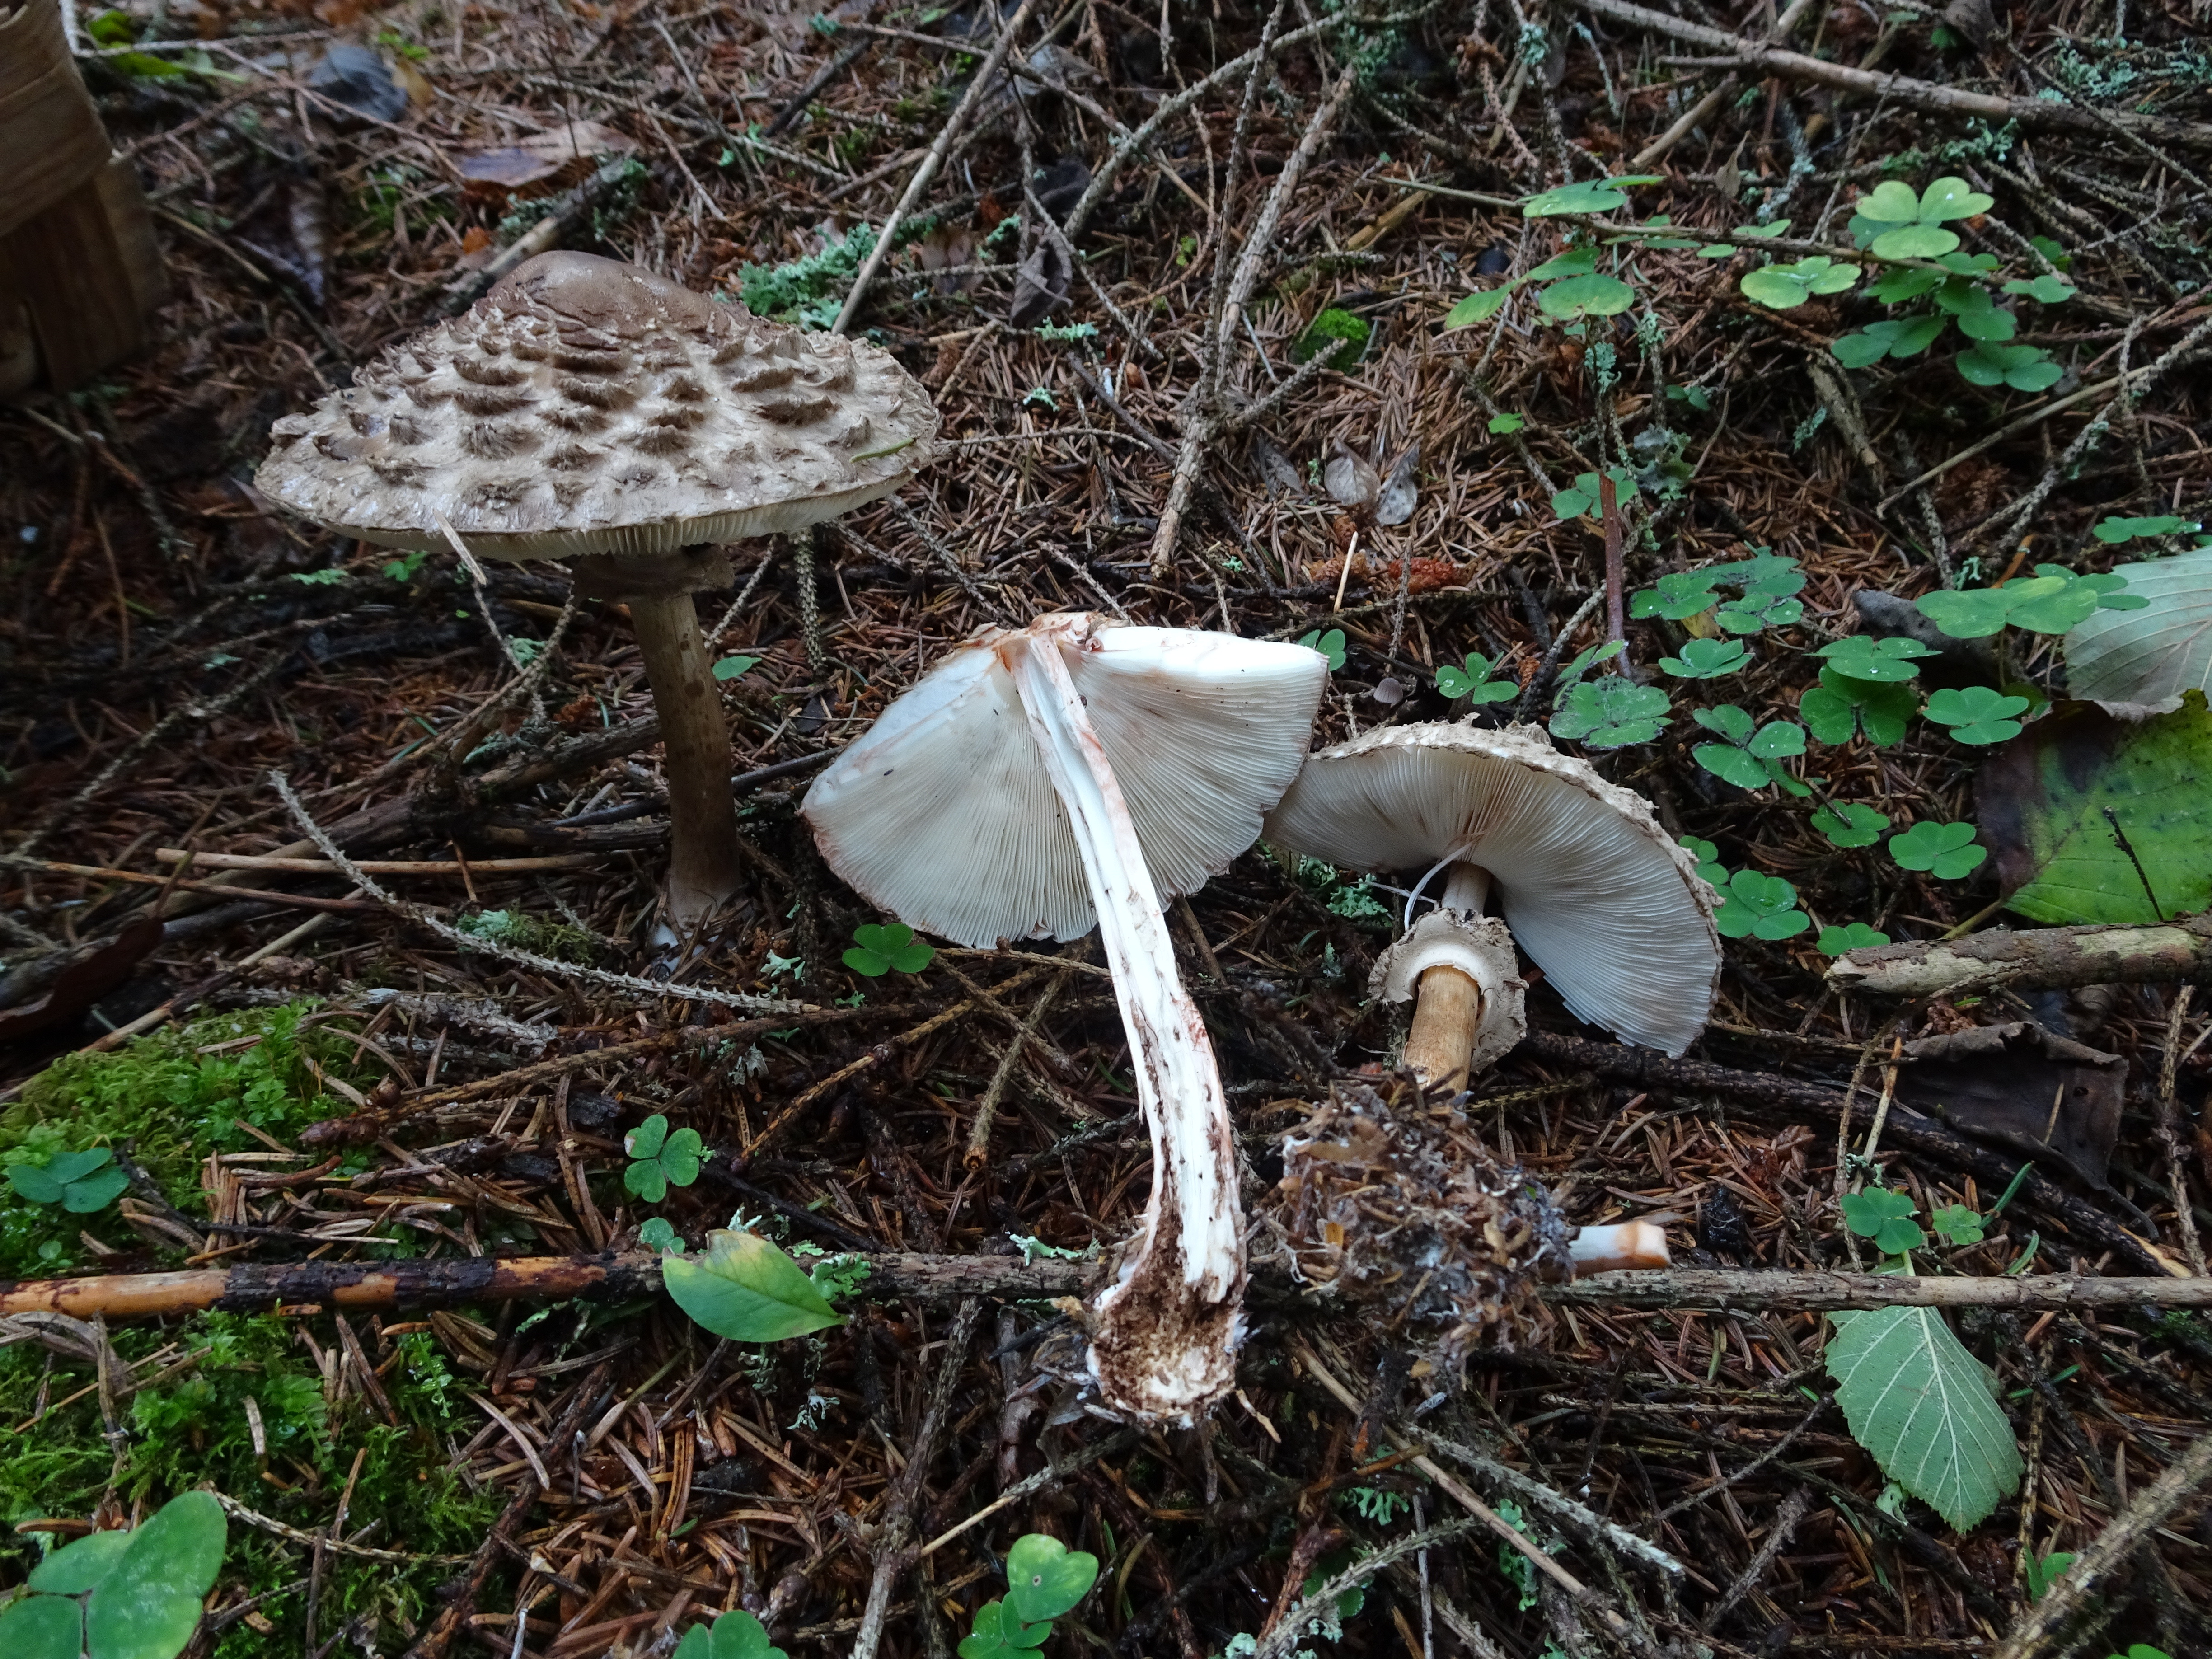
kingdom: Fungi
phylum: Basidiomycota
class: Agaricomycetes
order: Agaricales
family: Agaricaceae
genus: Chlorophyllum
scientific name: Chlorophyllum olivieri
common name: Conifer parasol
